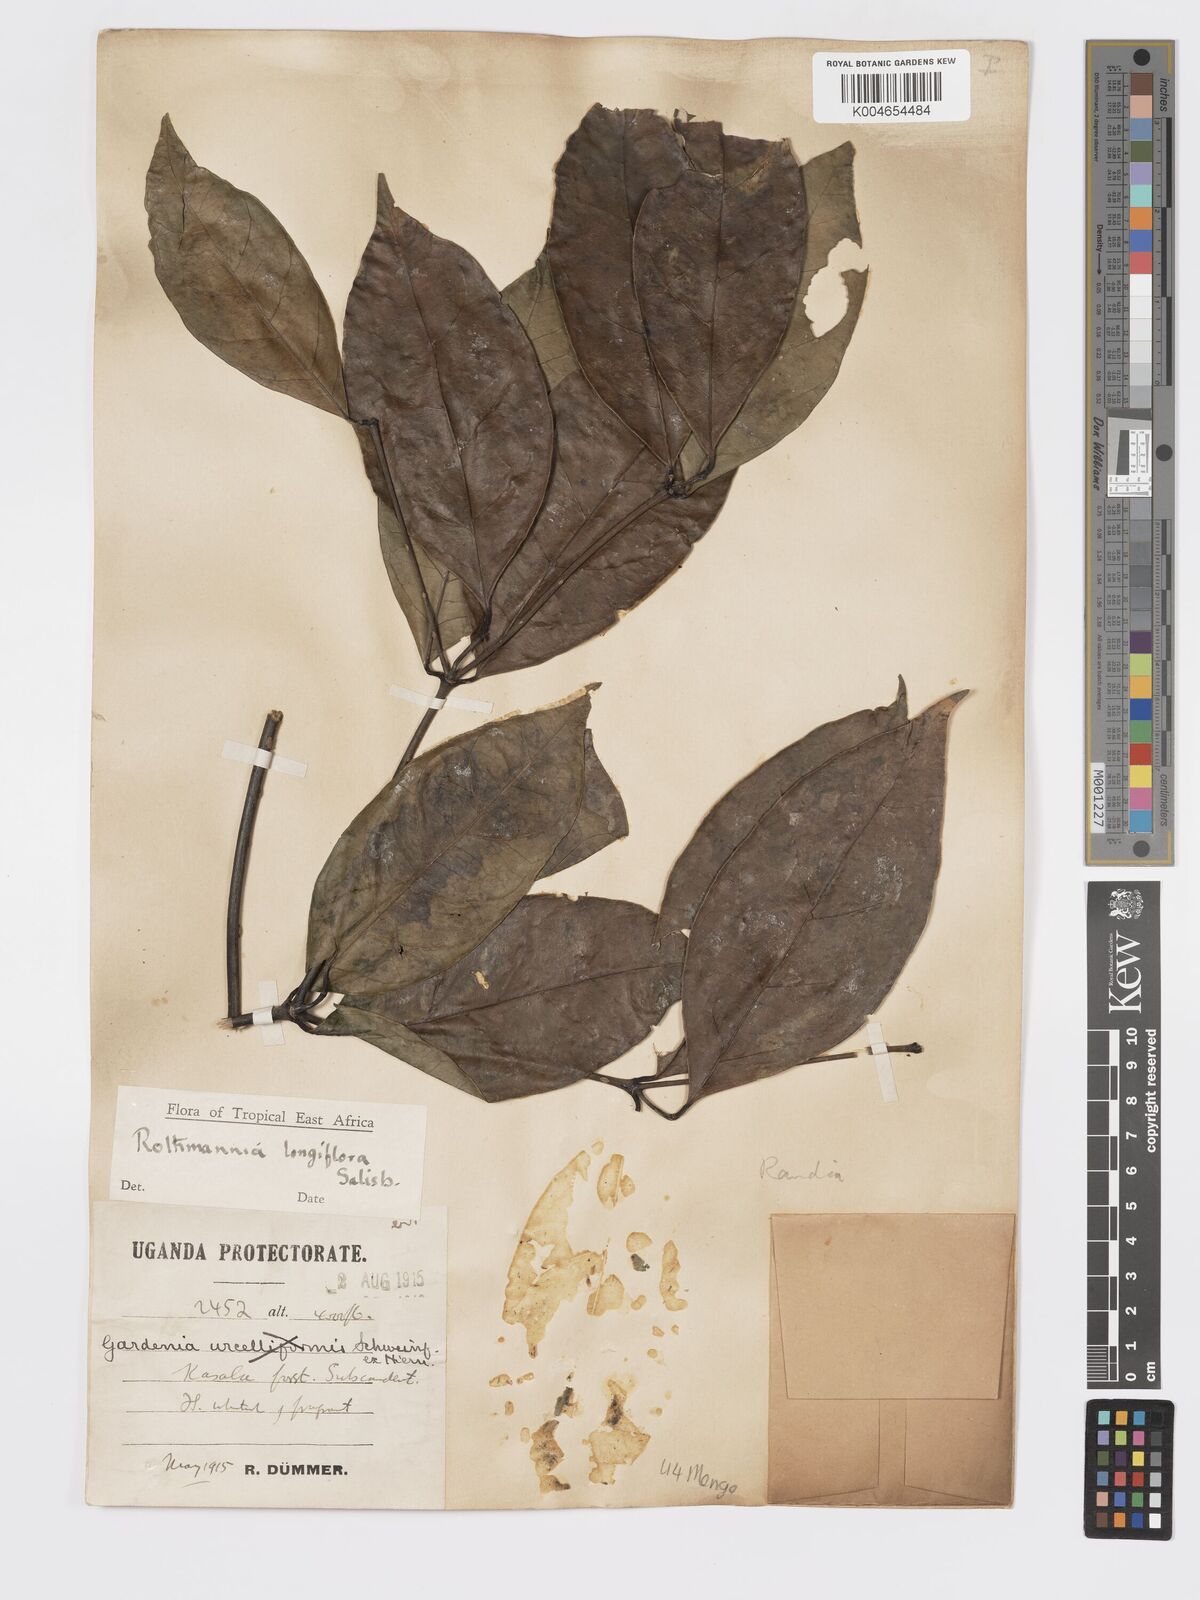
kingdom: Plantae
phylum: Tracheophyta
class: Magnoliopsida
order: Gentianales
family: Rubiaceae
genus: Rothmannia
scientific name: Rothmannia longiflora
